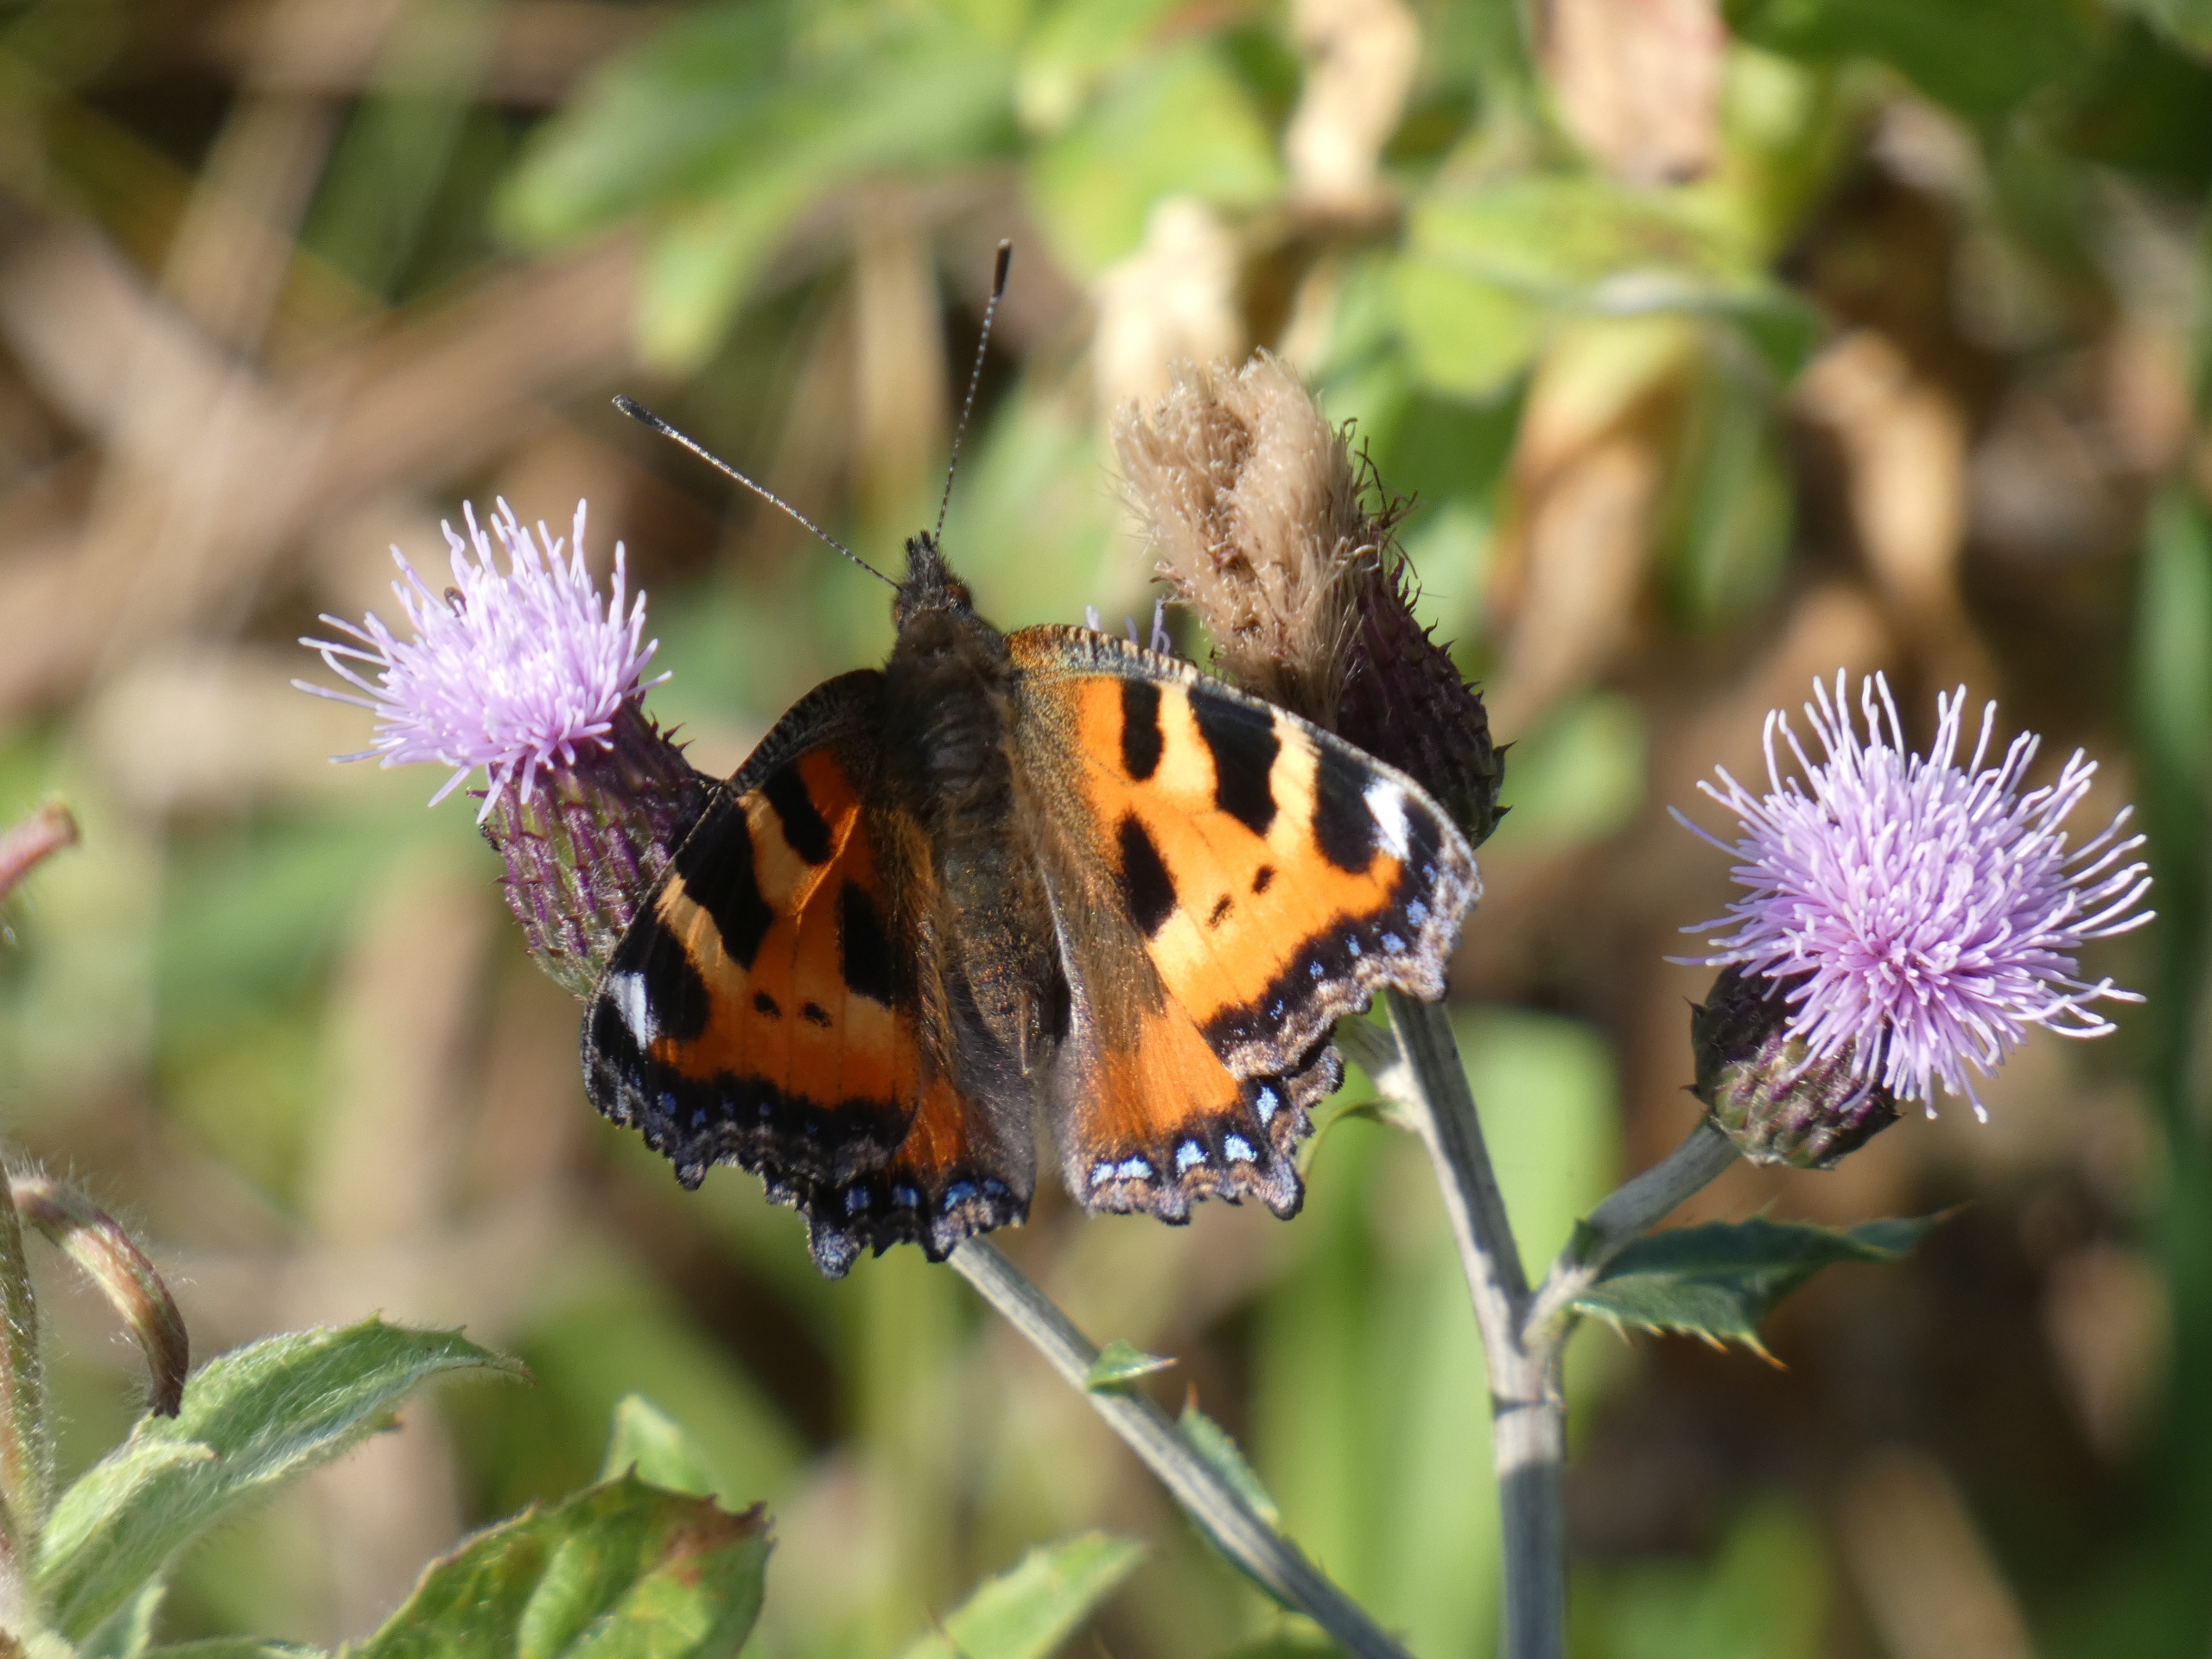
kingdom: Animalia
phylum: Arthropoda
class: Insecta
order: Lepidoptera
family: Nymphalidae
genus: Aglais
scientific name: Aglais urticae
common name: Nældens takvinge
